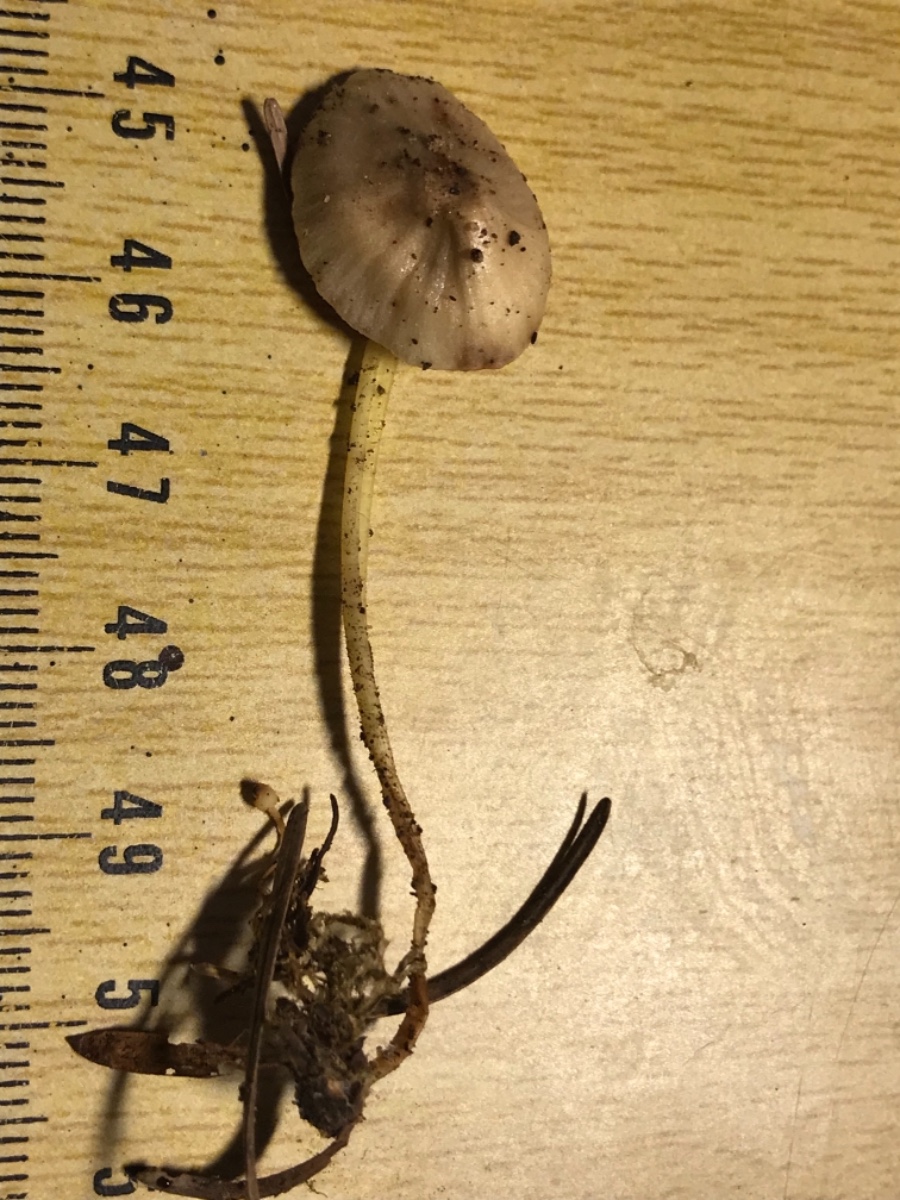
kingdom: Fungi
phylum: Basidiomycota
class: Agaricomycetes
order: Agaricales
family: Mycenaceae
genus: Mycena
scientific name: Mycena epipterygia
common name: gulstokket huesvamp
